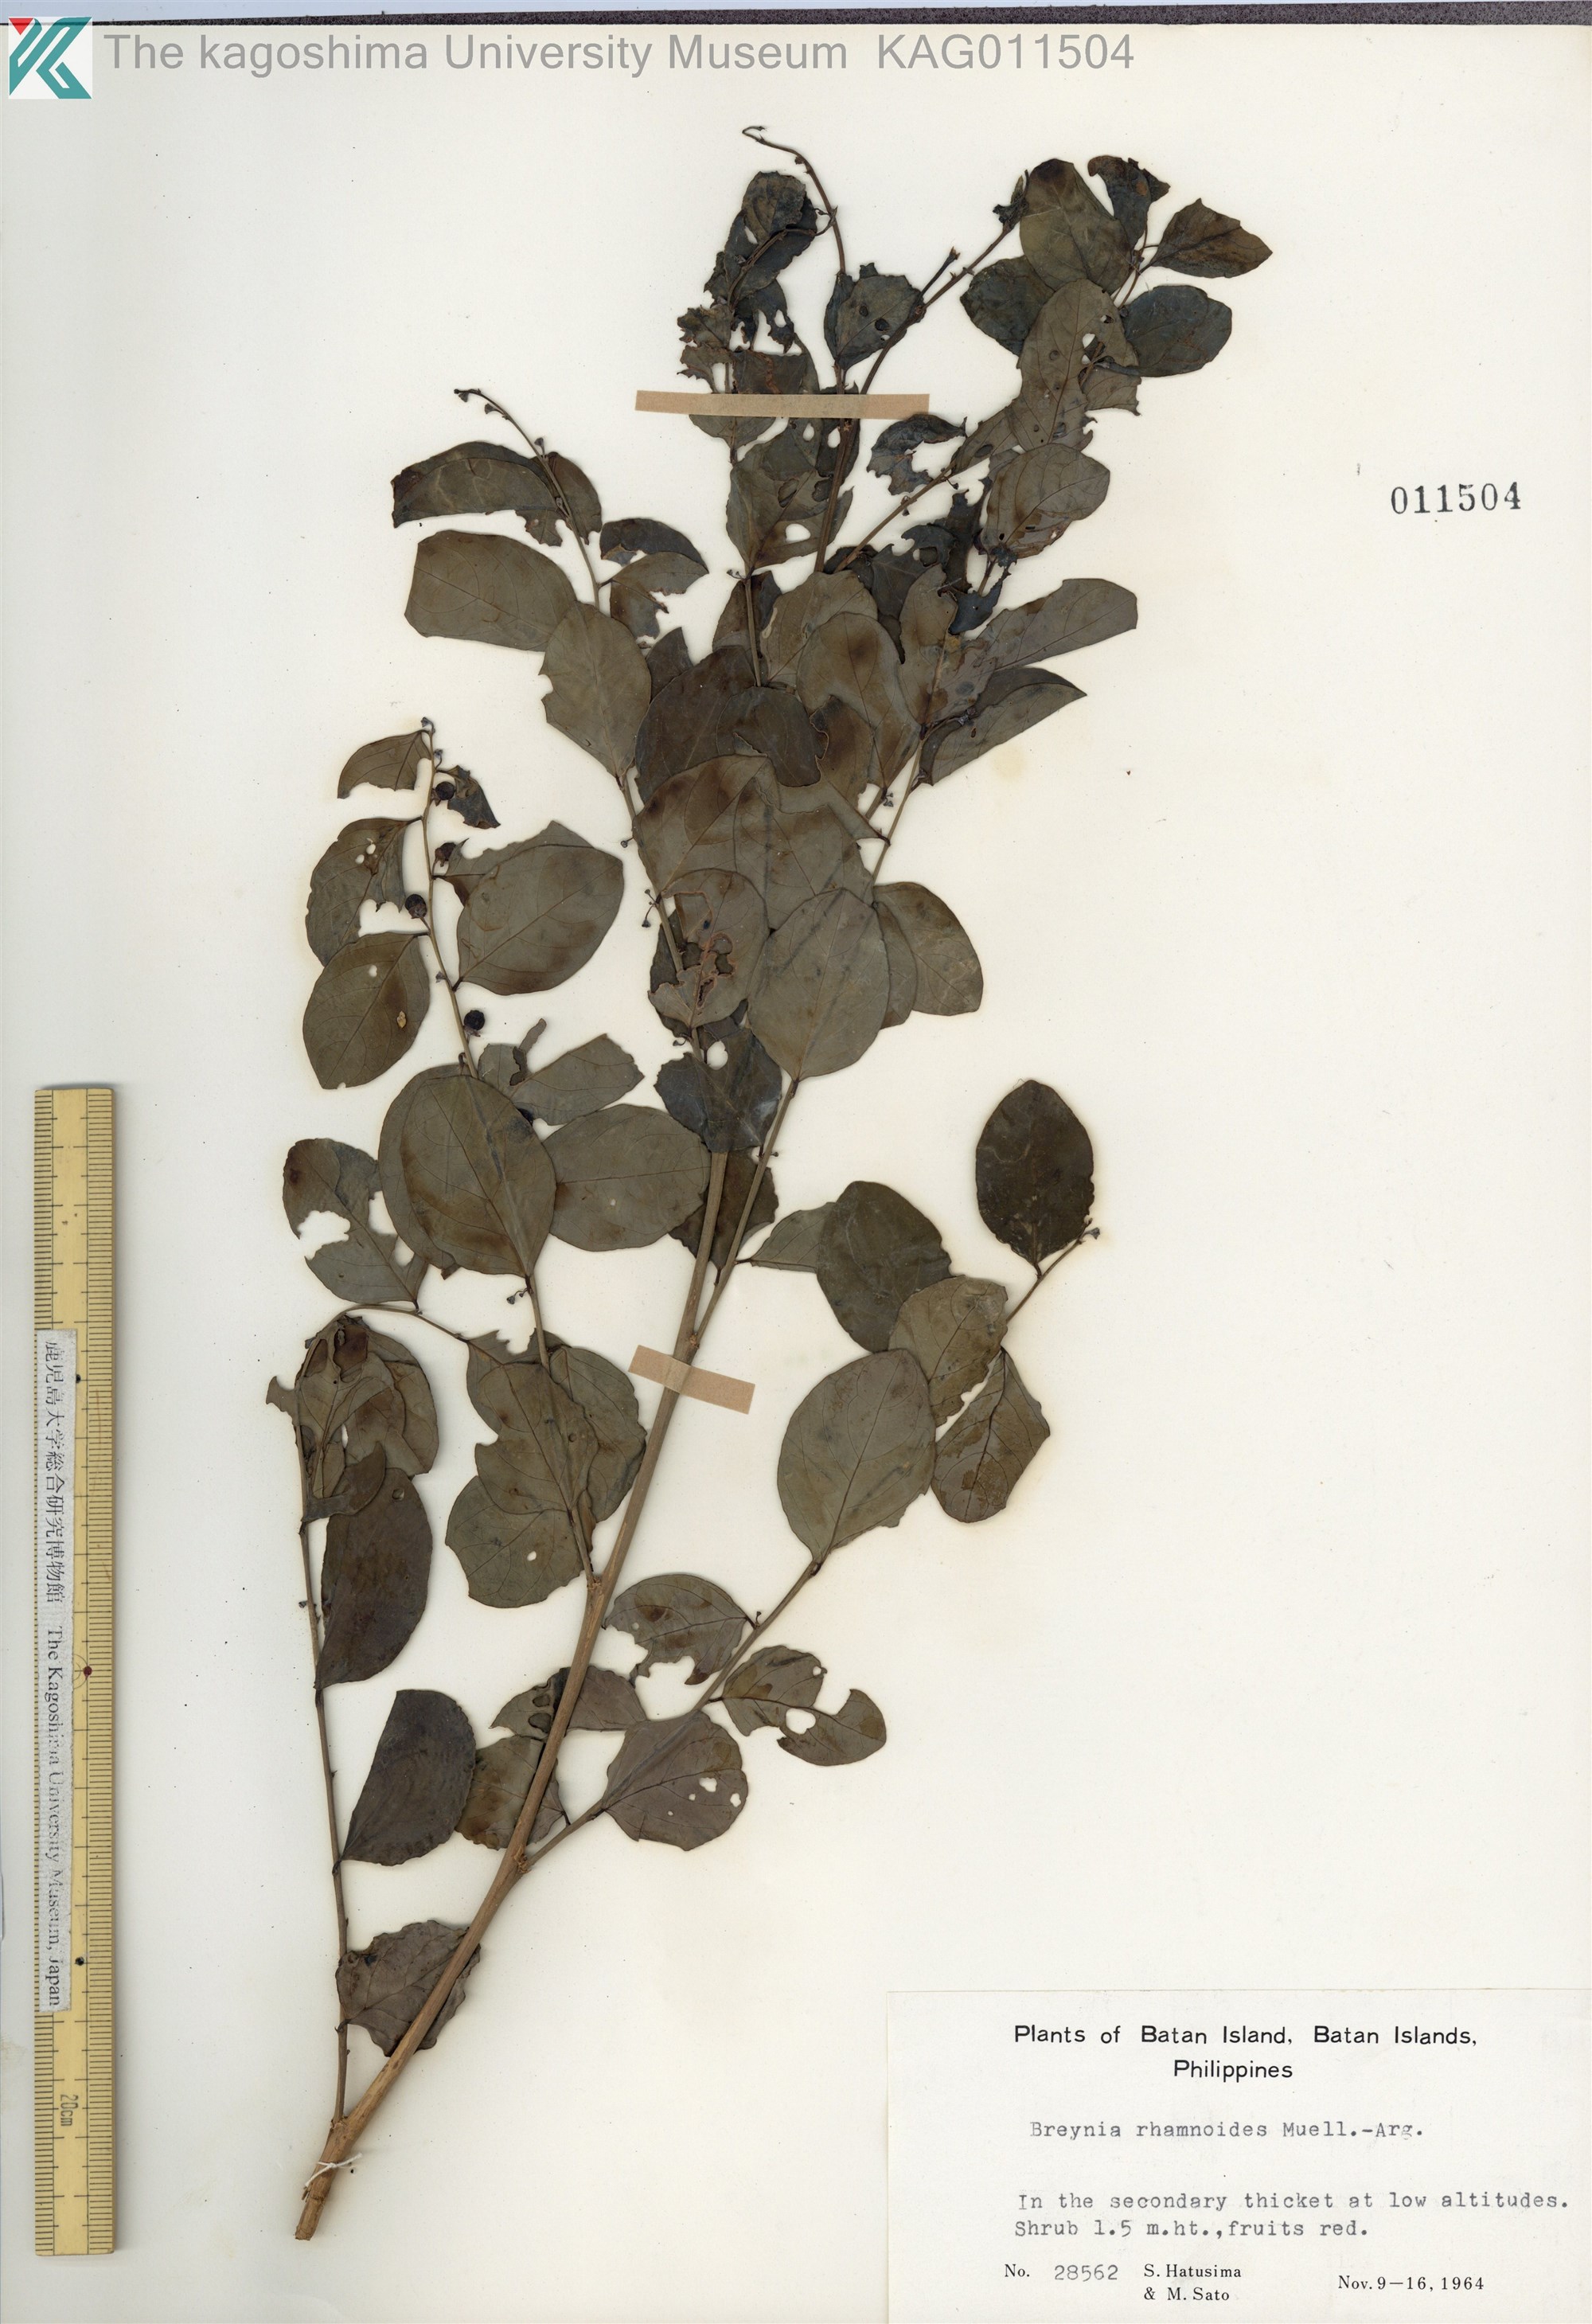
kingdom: Plantae
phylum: Tracheophyta
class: Magnoliopsida
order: Malpighiales
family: Phyllanthaceae
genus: Breynia
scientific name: Breynia vitis-idaea
